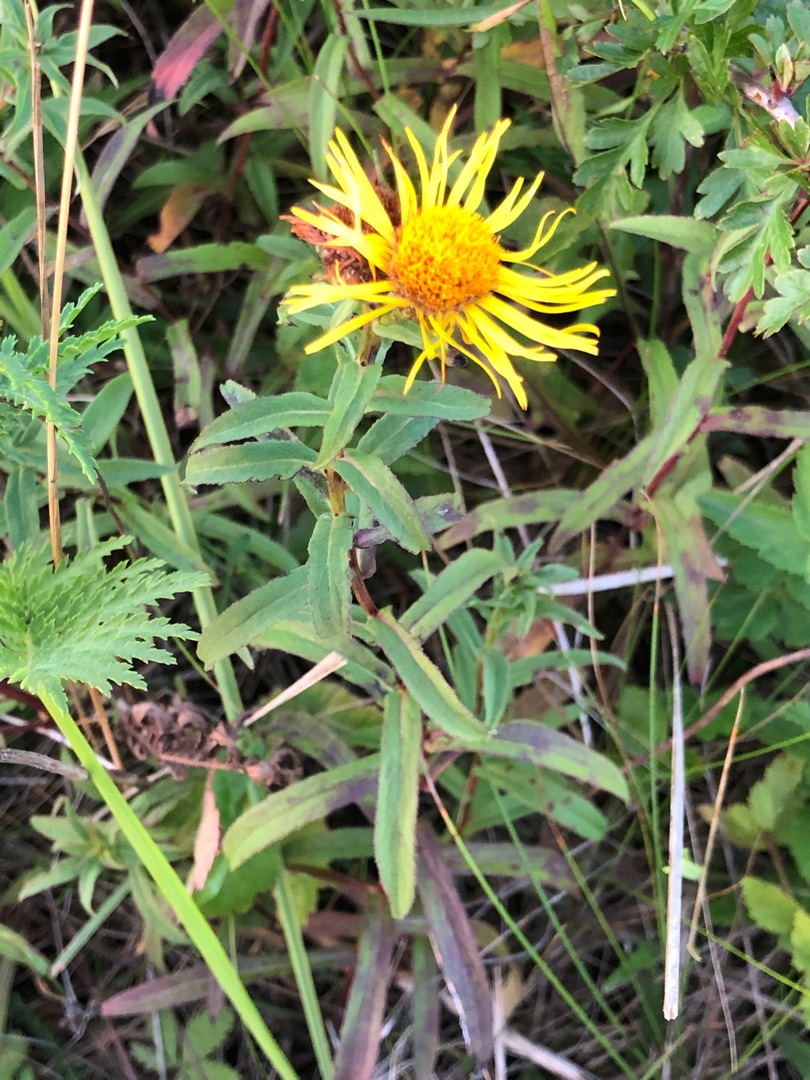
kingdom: Plantae
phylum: Tracheophyta
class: Magnoliopsida
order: Asterales
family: Asteraceae
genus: Pentanema
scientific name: Pentanema salicinum
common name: Pile-alant
